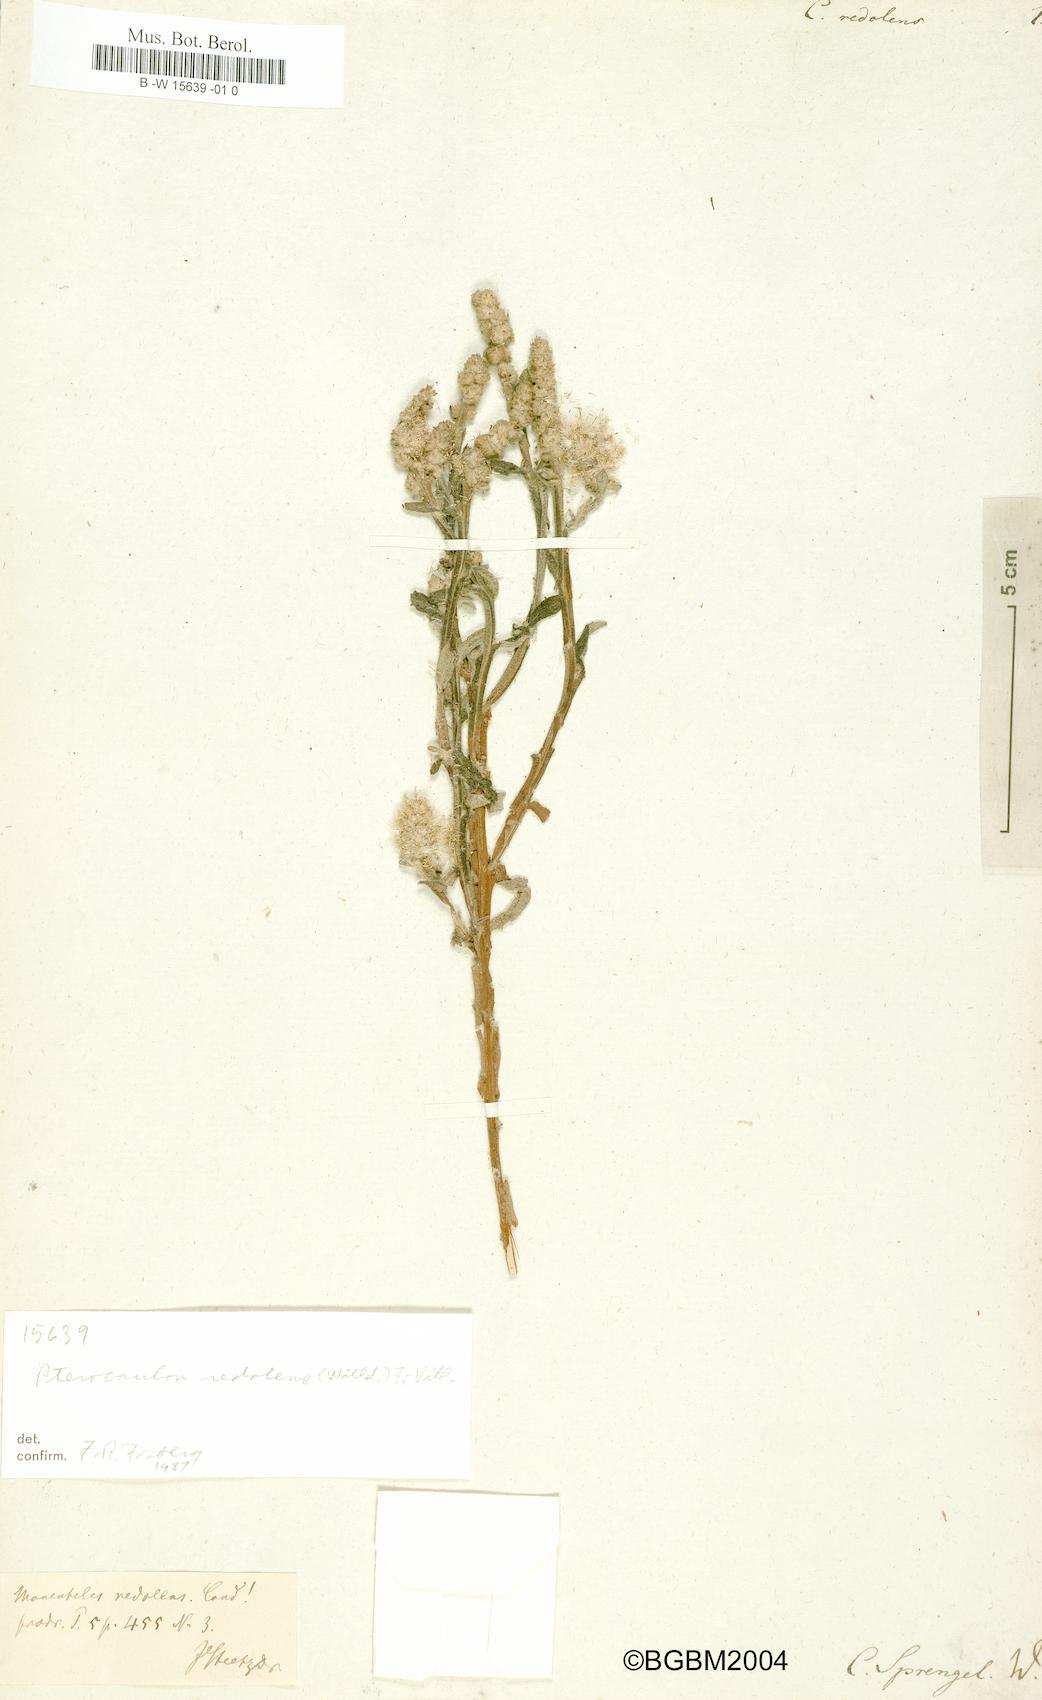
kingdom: Plantae
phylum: Tracheophyta
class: Magnoliopsida
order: Asterales
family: Asteraceae
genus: Pterocaulon
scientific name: Pterocaulon redolens
